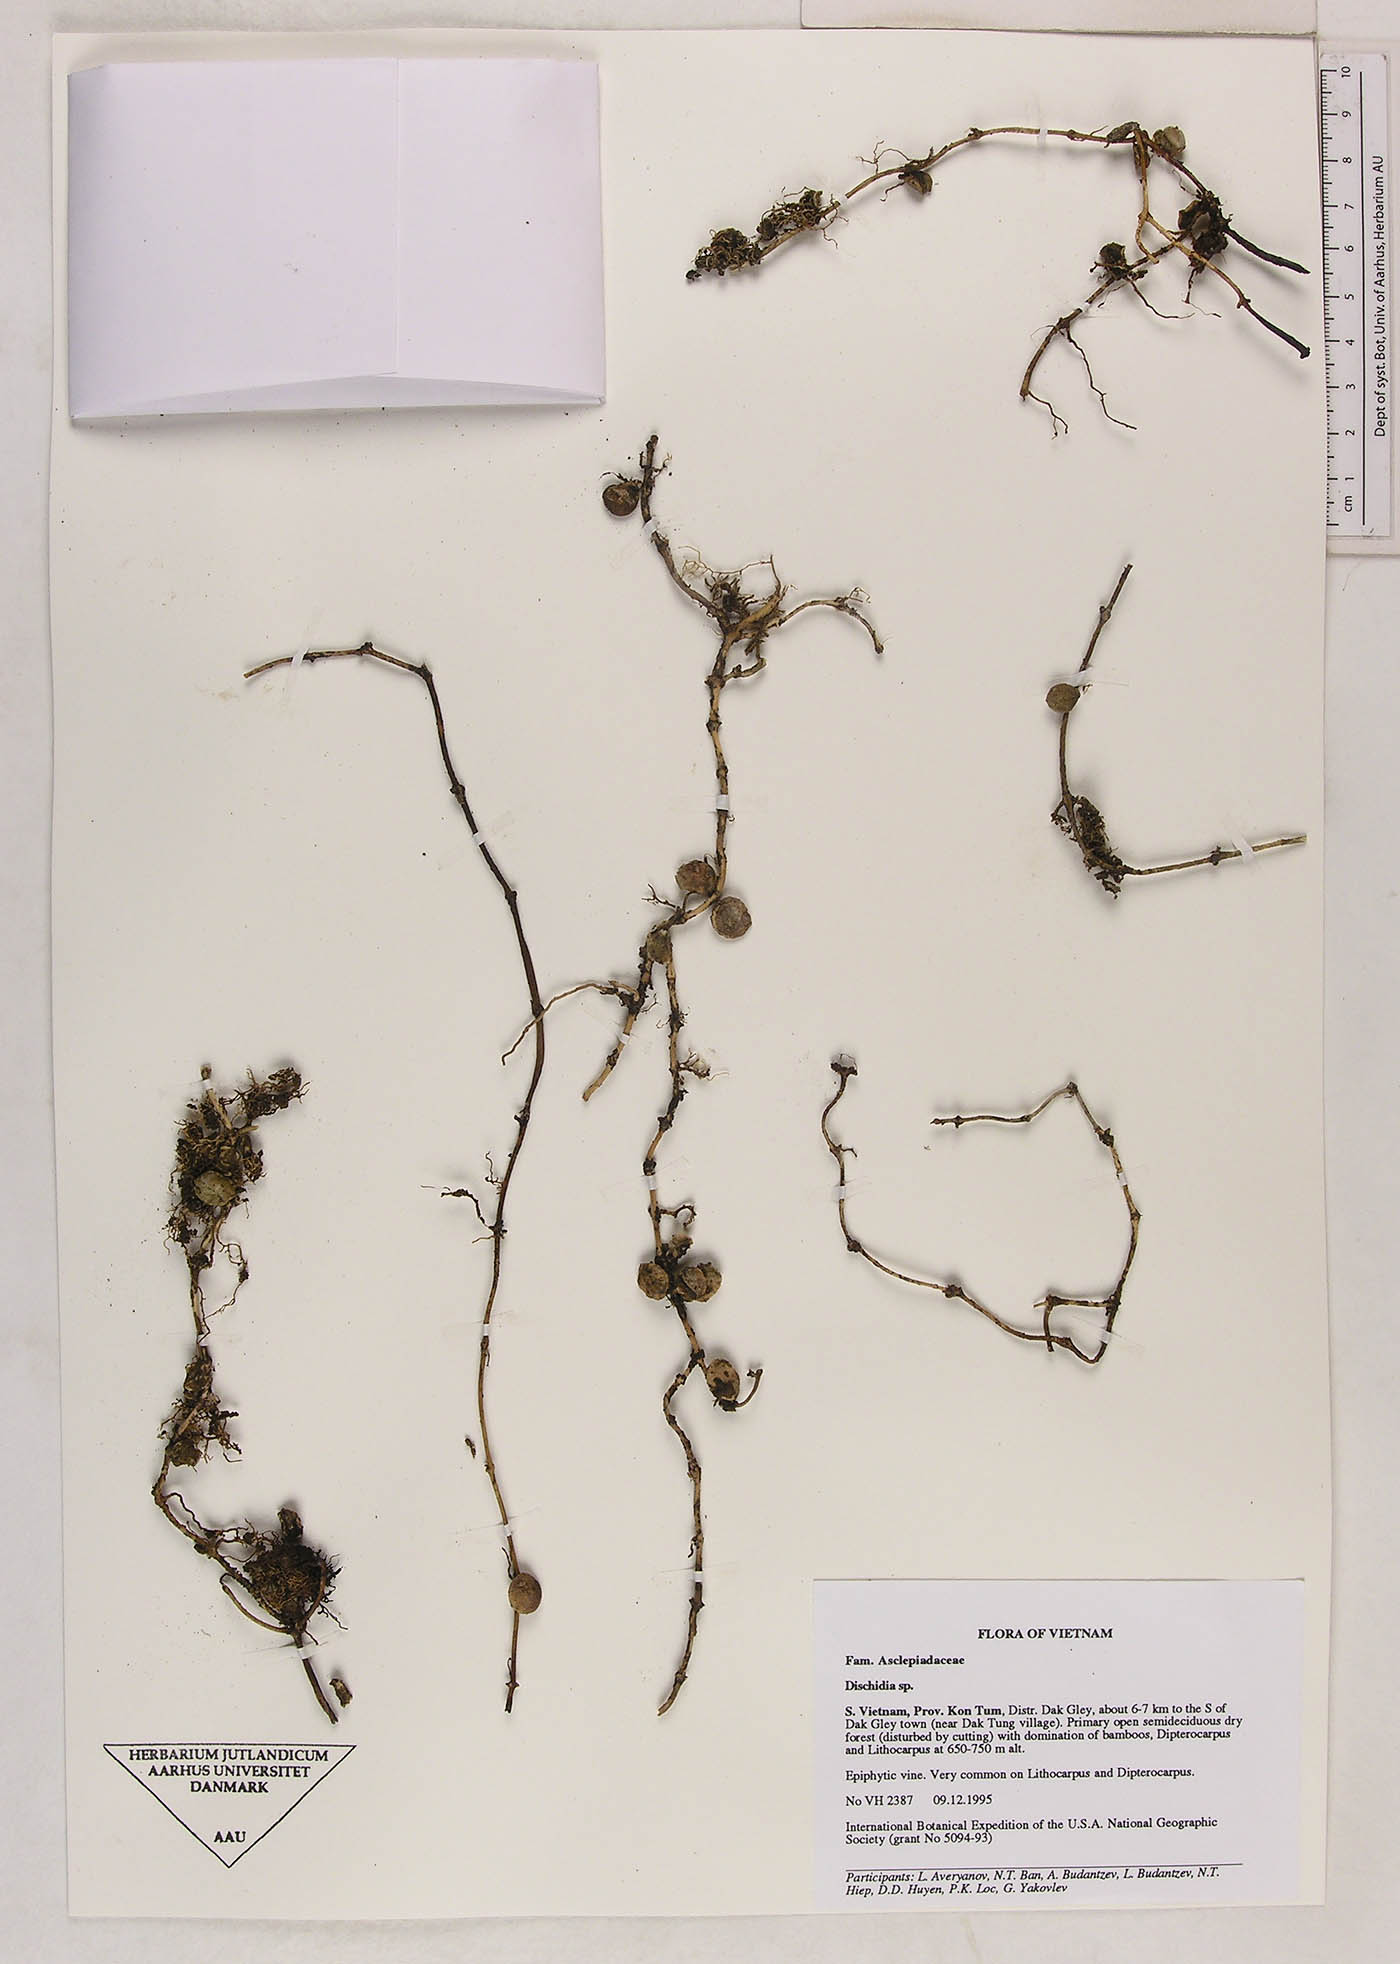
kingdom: Plantae
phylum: Tracheophyta
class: Magnoliopsida
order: Gentianales
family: Apocynaceae
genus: Dischidia
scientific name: Dischidia nummularia
